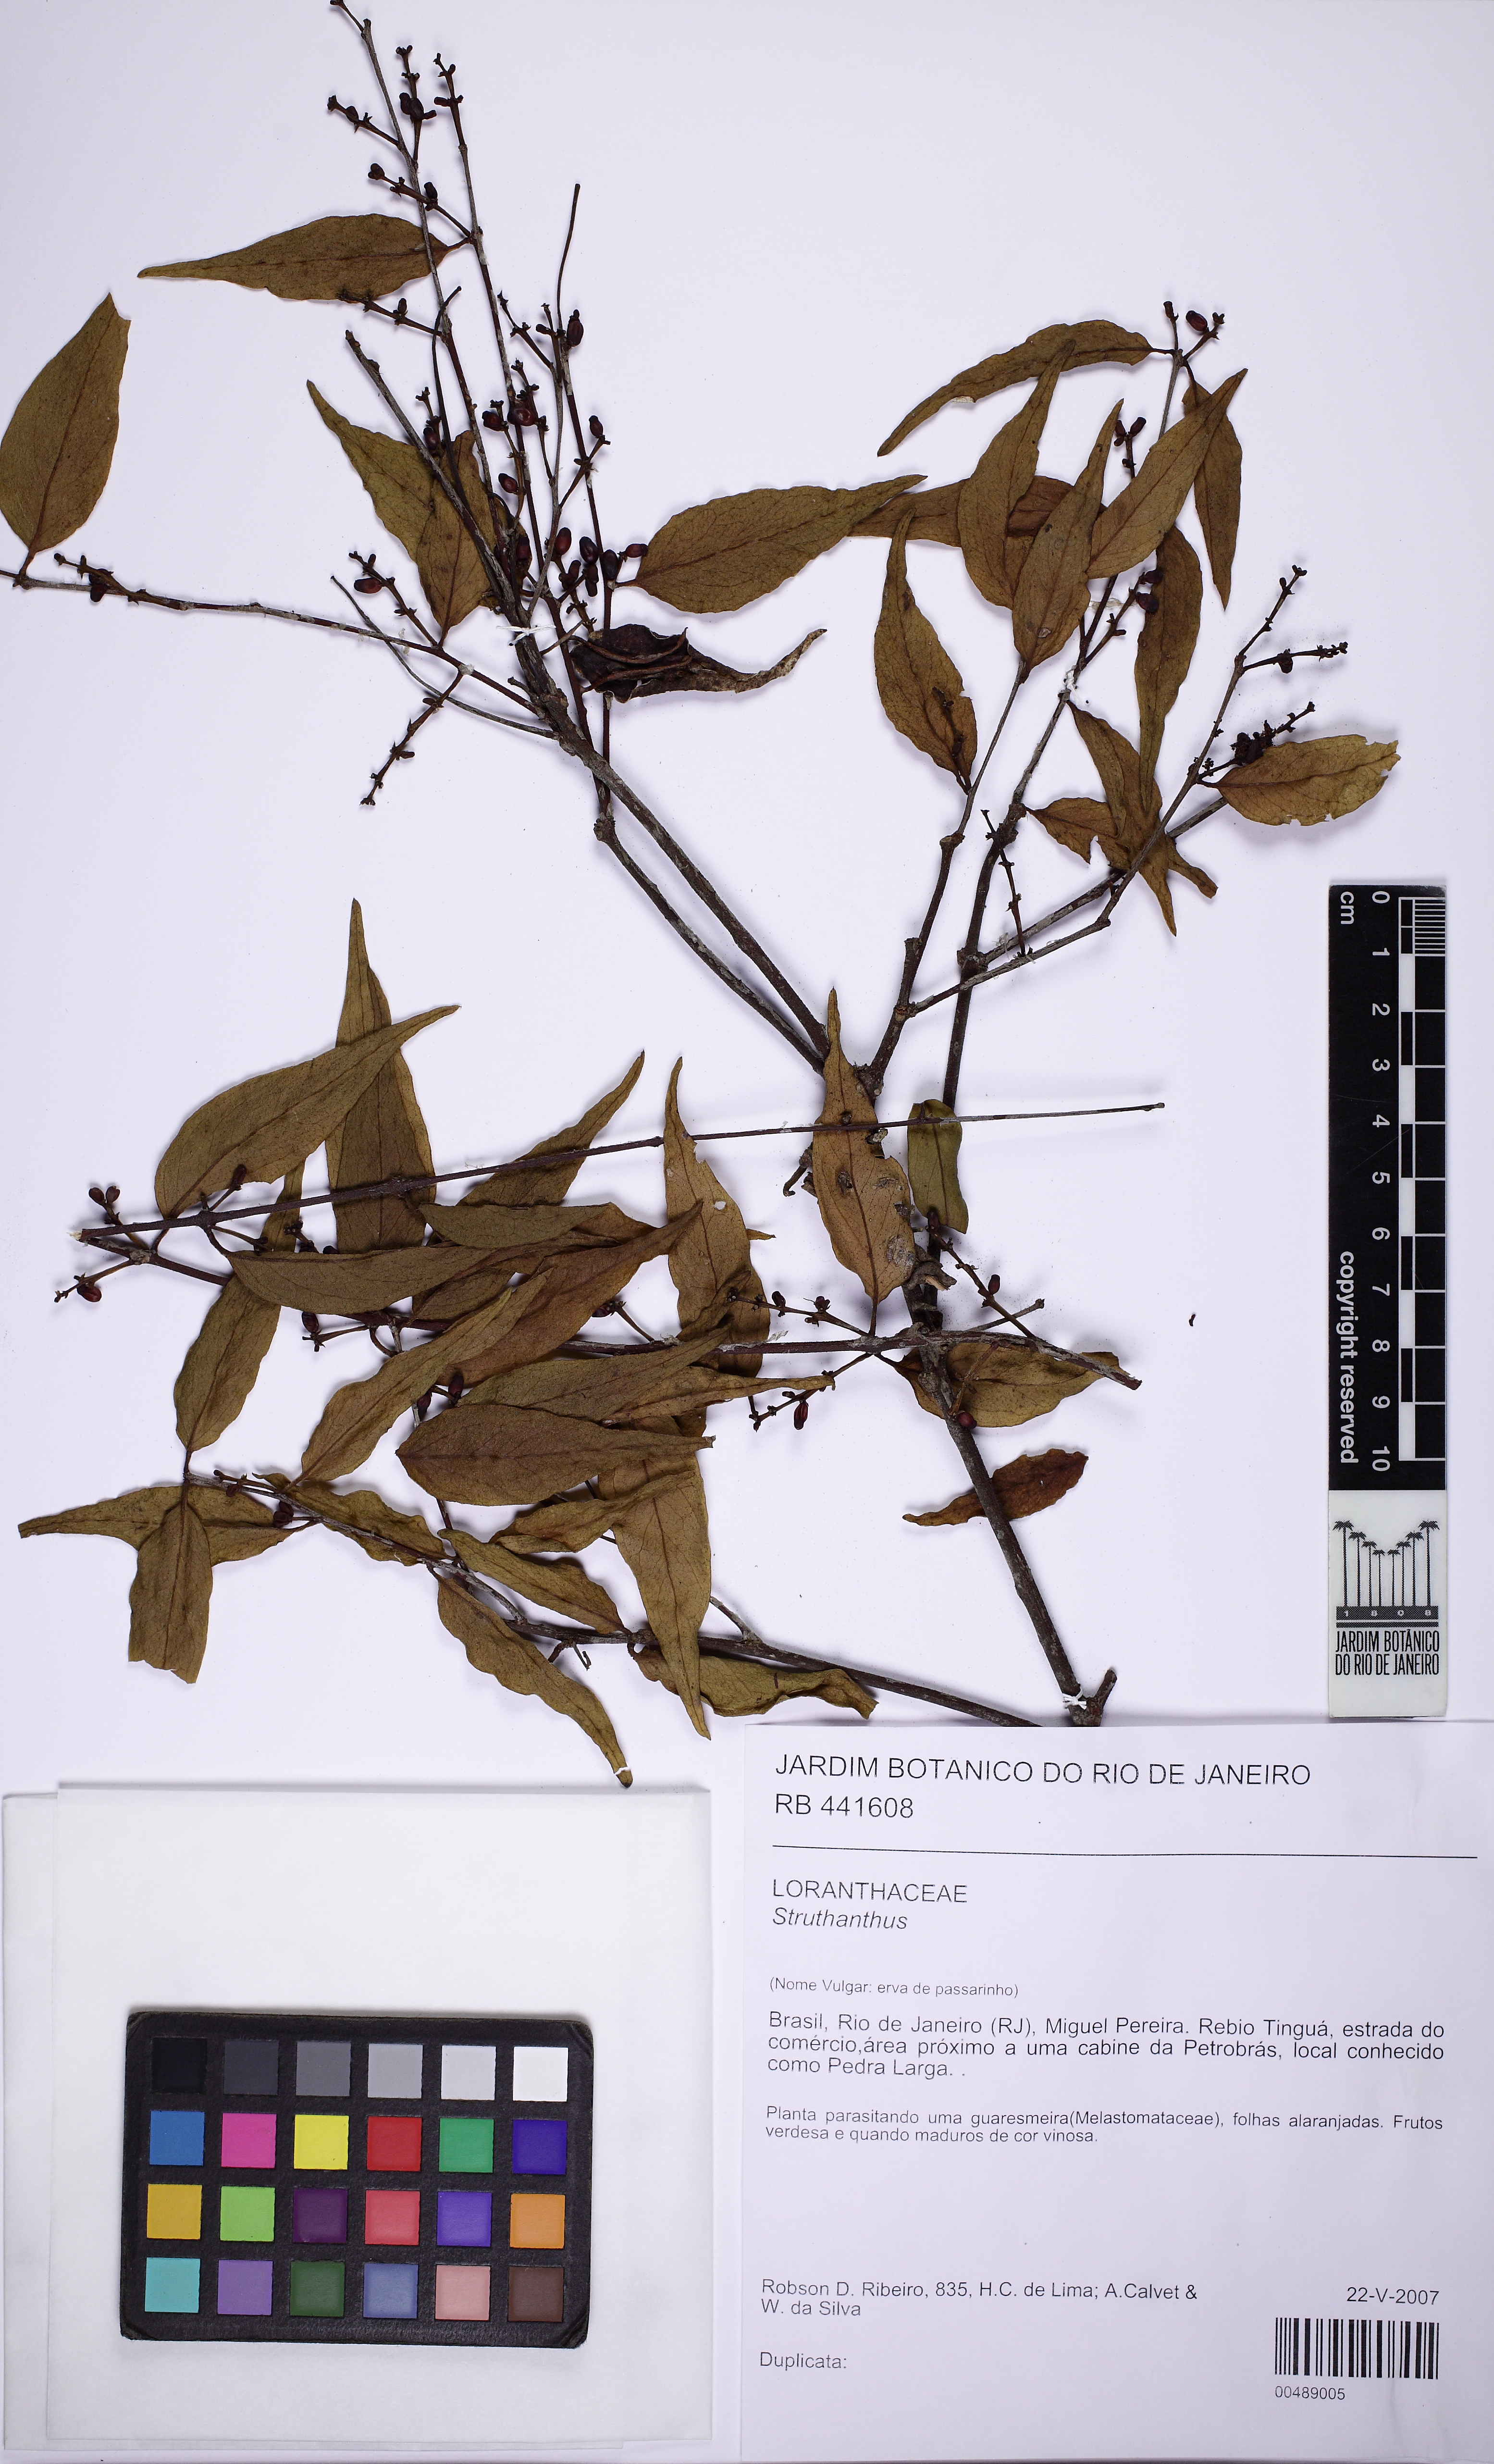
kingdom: Plantae
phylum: Tracheophyta
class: Magnoliopsida
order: Santalales
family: Loranthaceae
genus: Struthanthus
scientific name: Struthanthus
